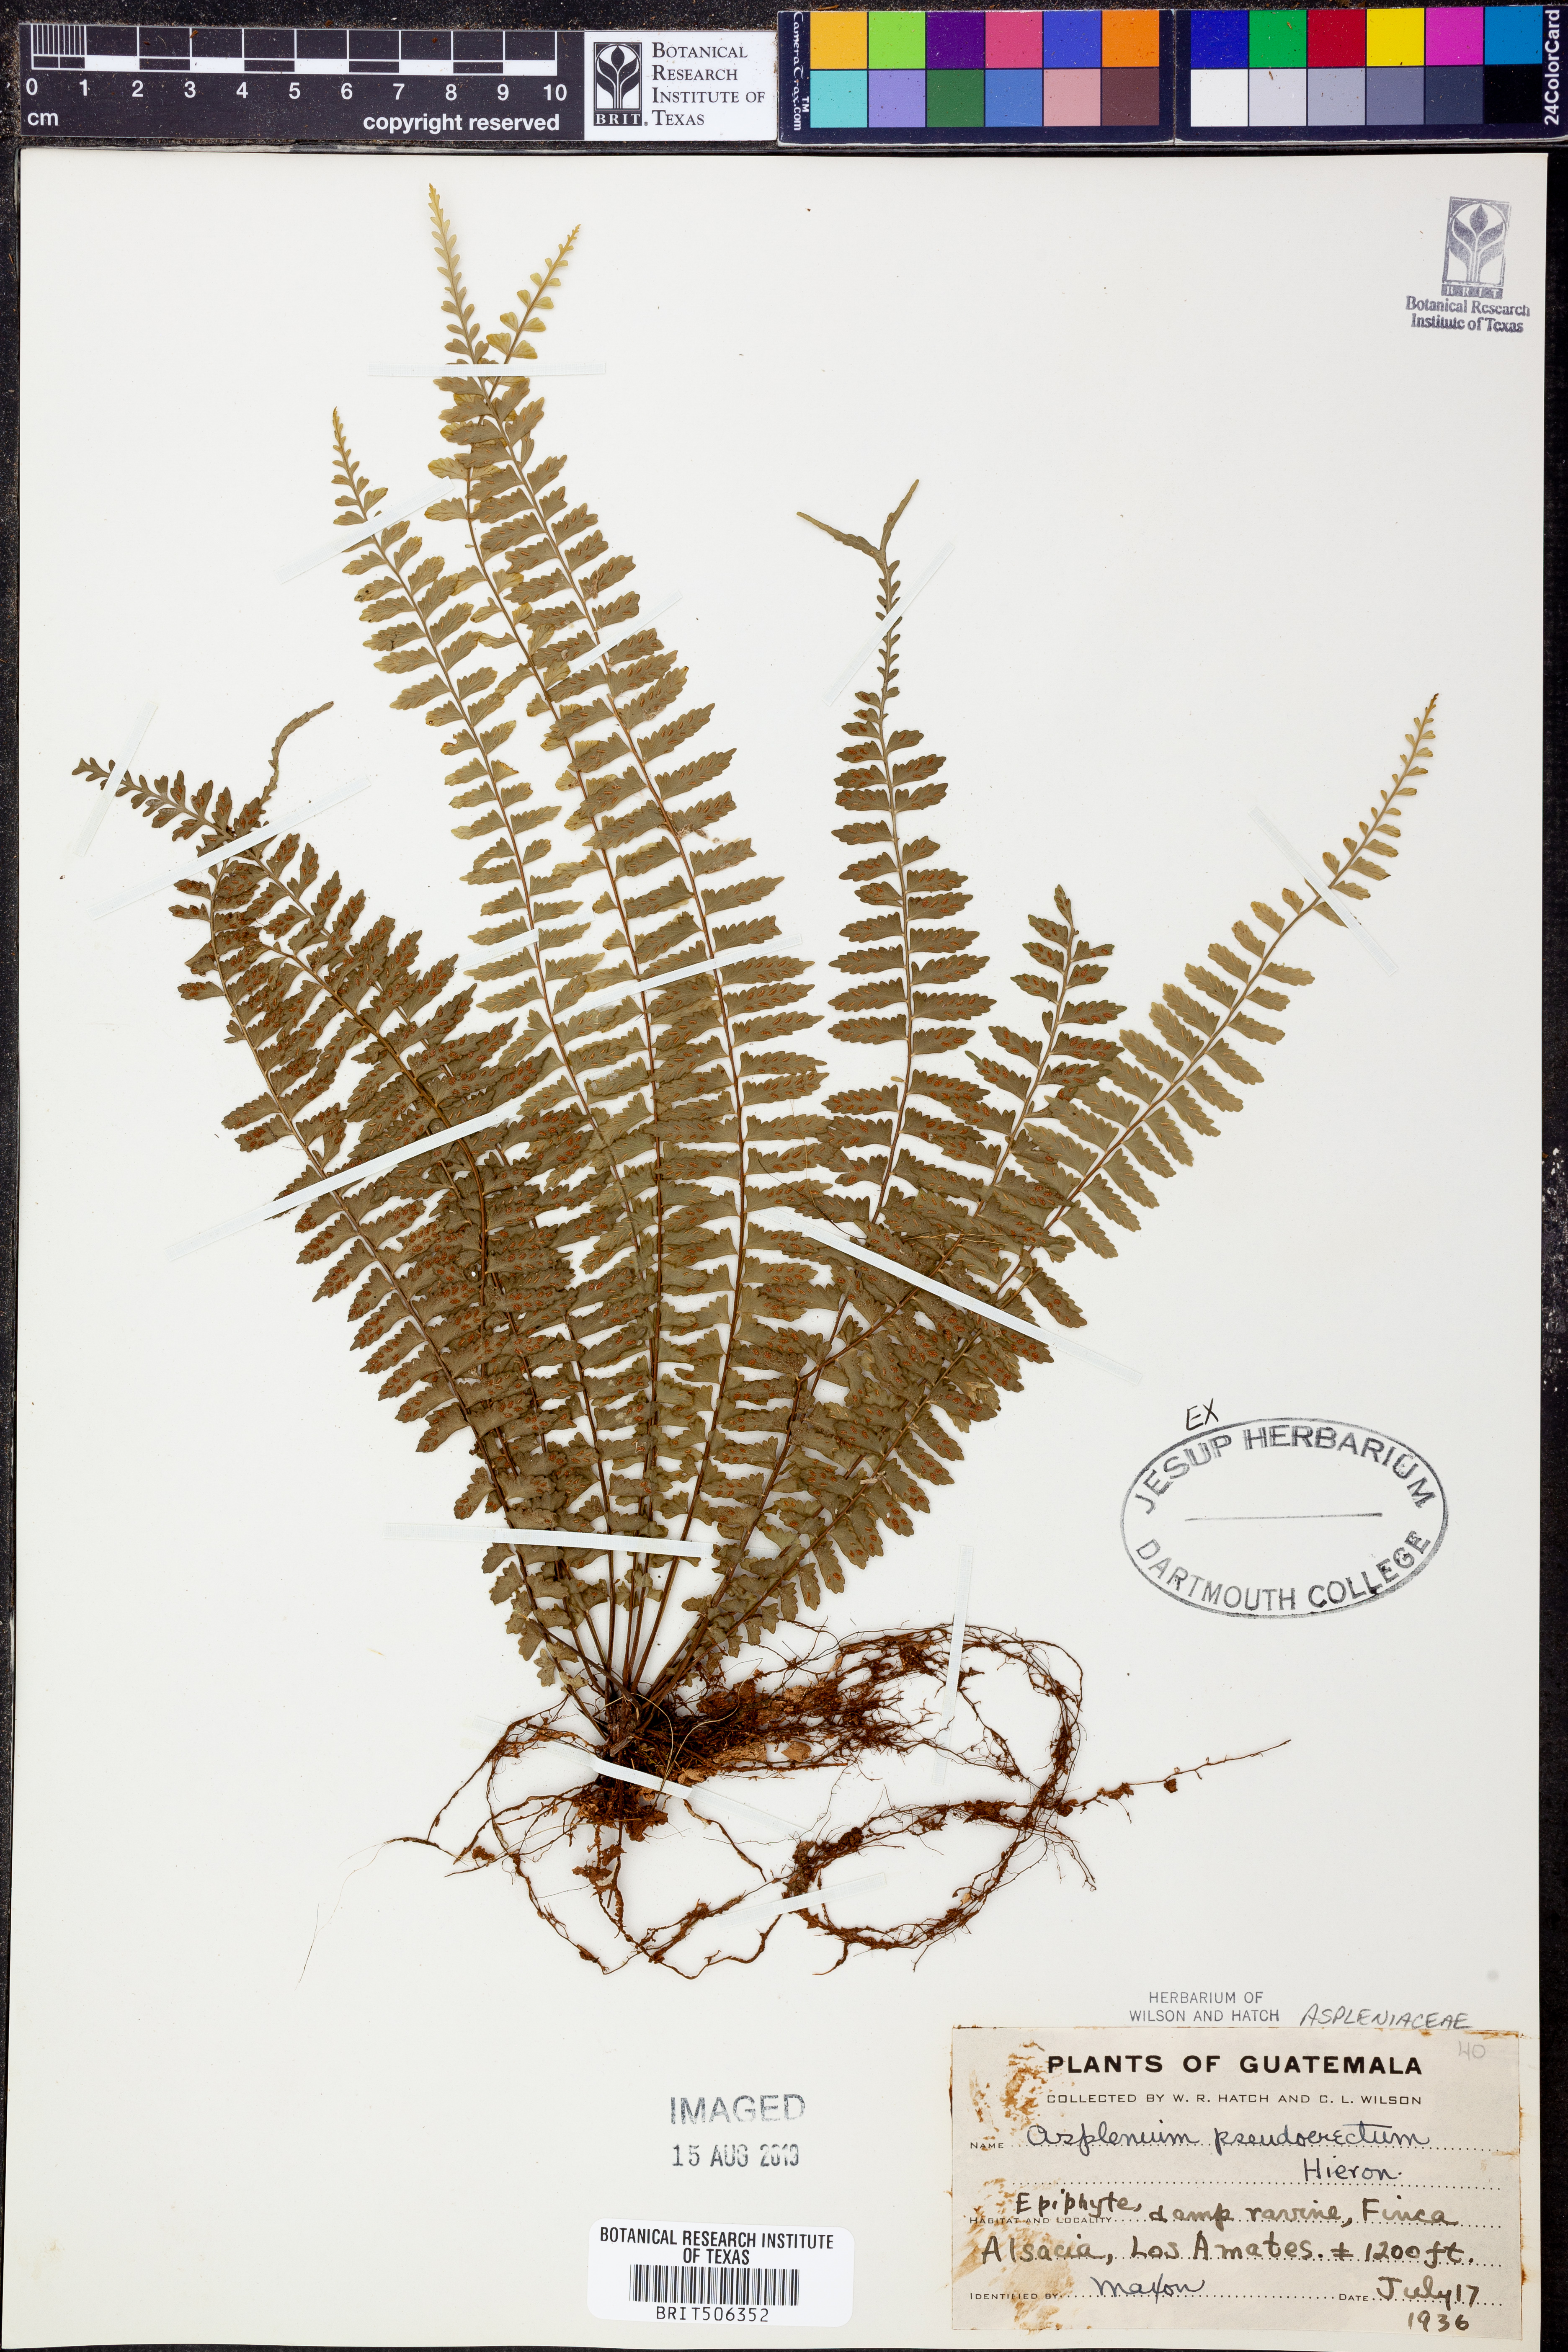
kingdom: Plantae
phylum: Tracheophyta
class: Polypodiopsida
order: Polypodiales
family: Aspleniaceae
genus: Asplenium
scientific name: Asplenium pteropus
